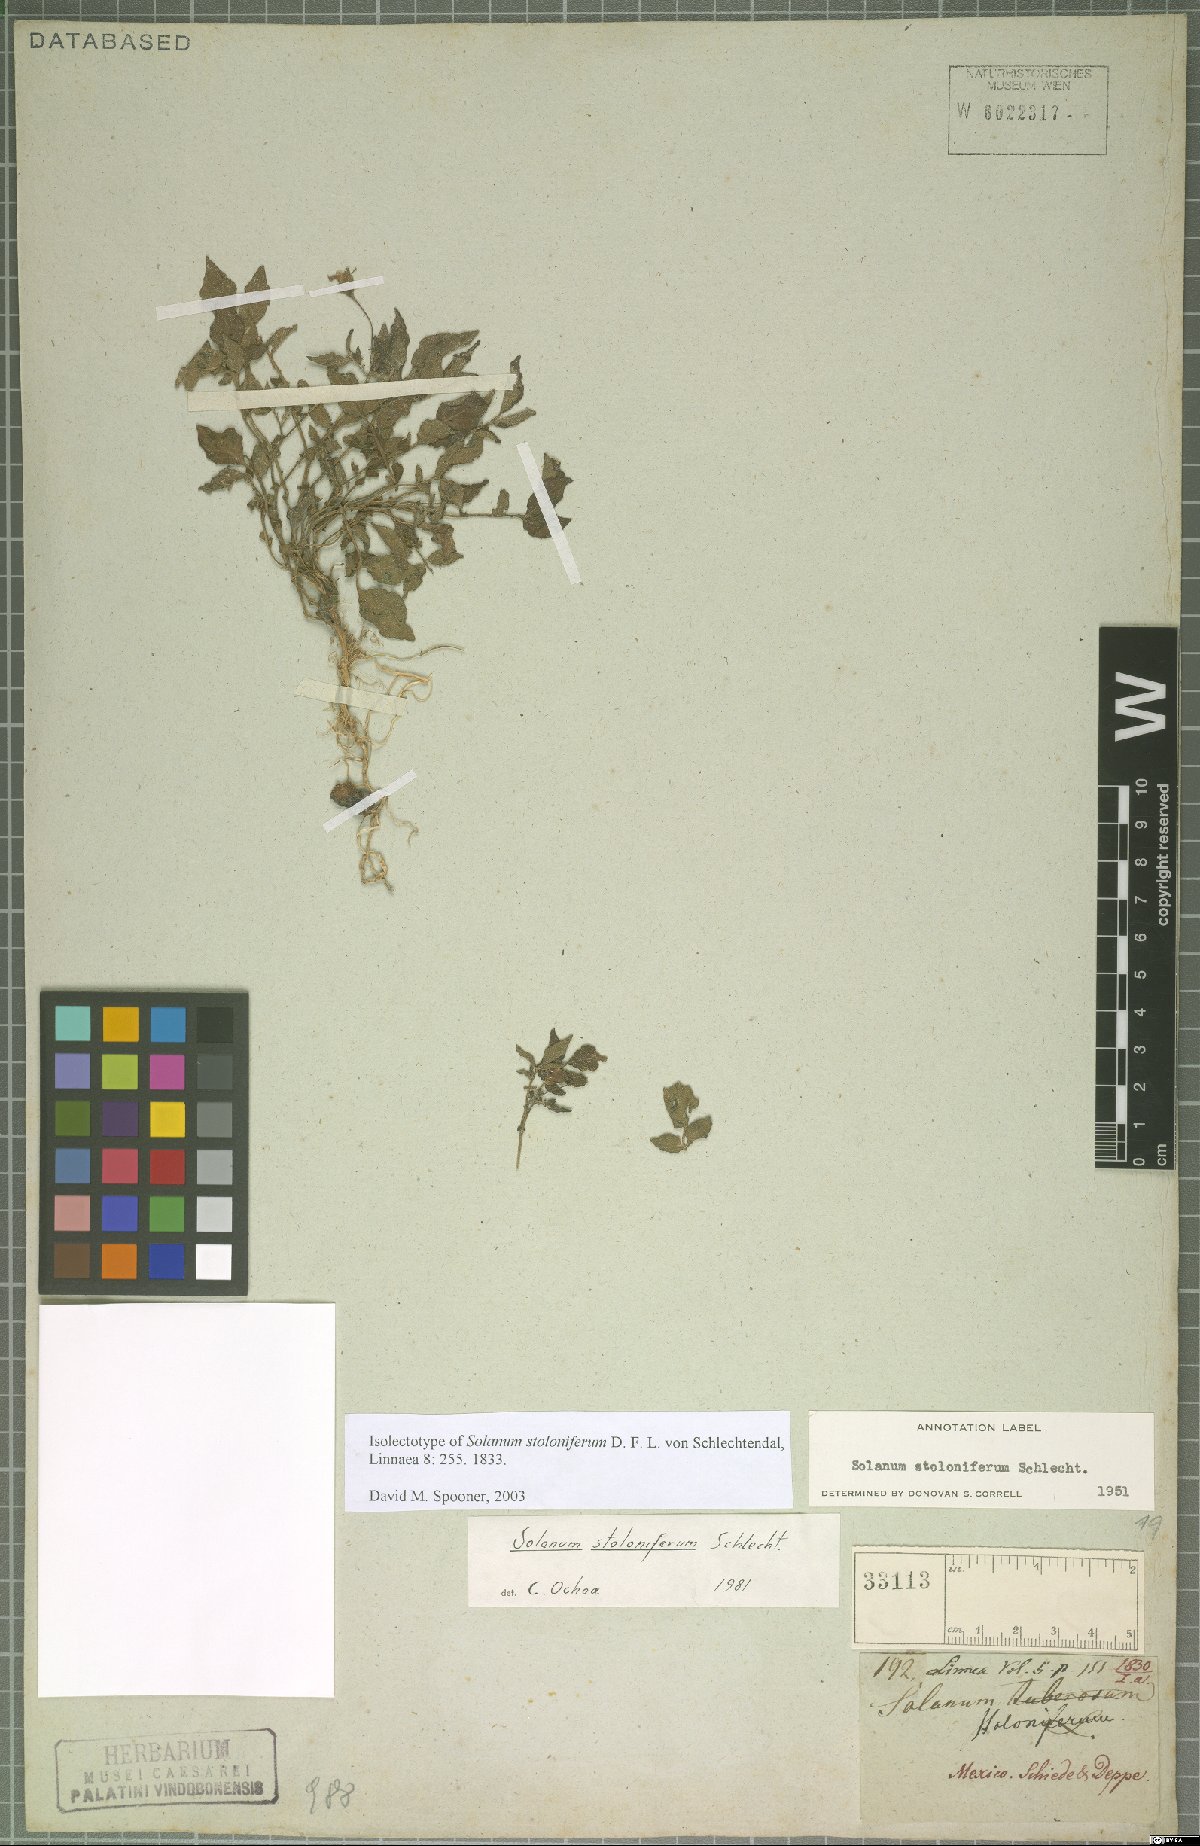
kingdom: Plantae
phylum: Tracheophyta
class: Magnoliopsida
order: Solanales
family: Solanaceae
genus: Solanum
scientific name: Solanum stoloniferum
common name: Fendler's nighshade
